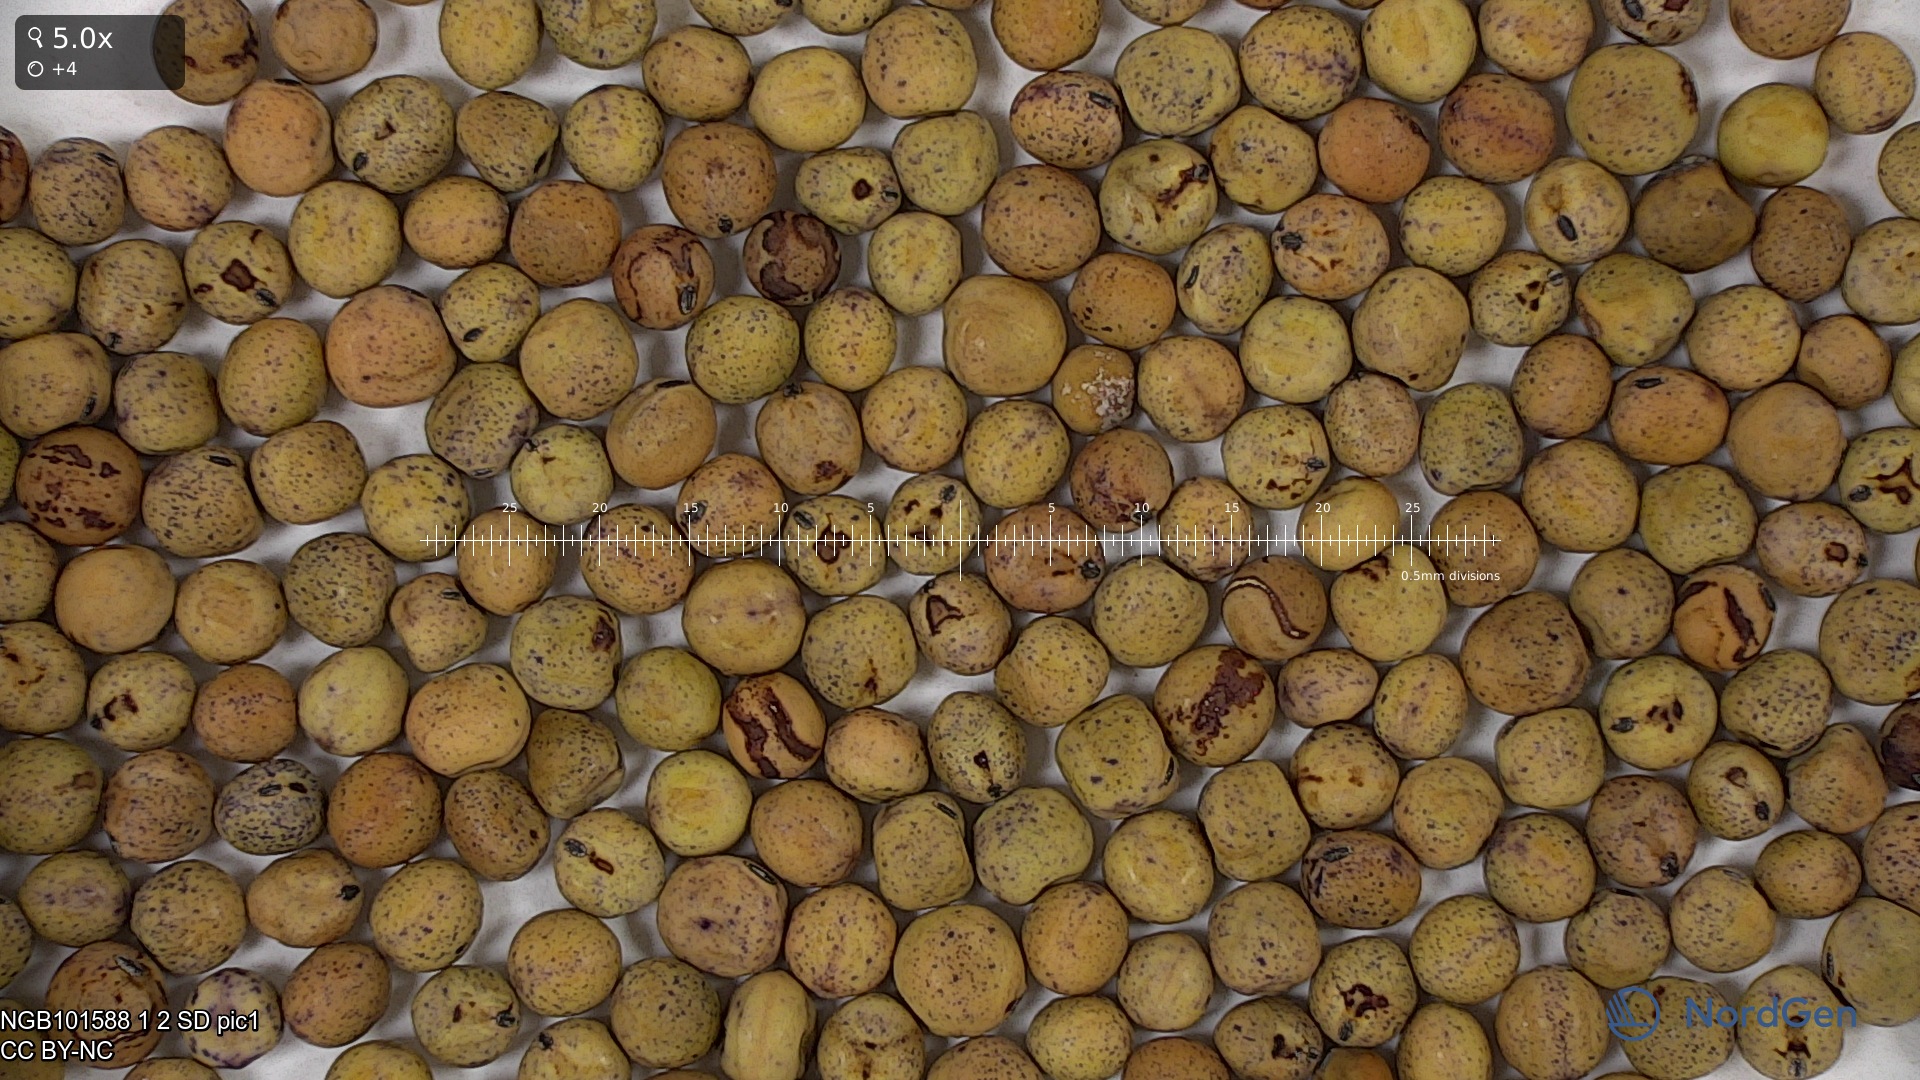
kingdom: Plantae
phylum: Tracheophyta
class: Magnoliopsida
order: Fabales
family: Fabaceae
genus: Lathyrus
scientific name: Lathyrus oleraceus
